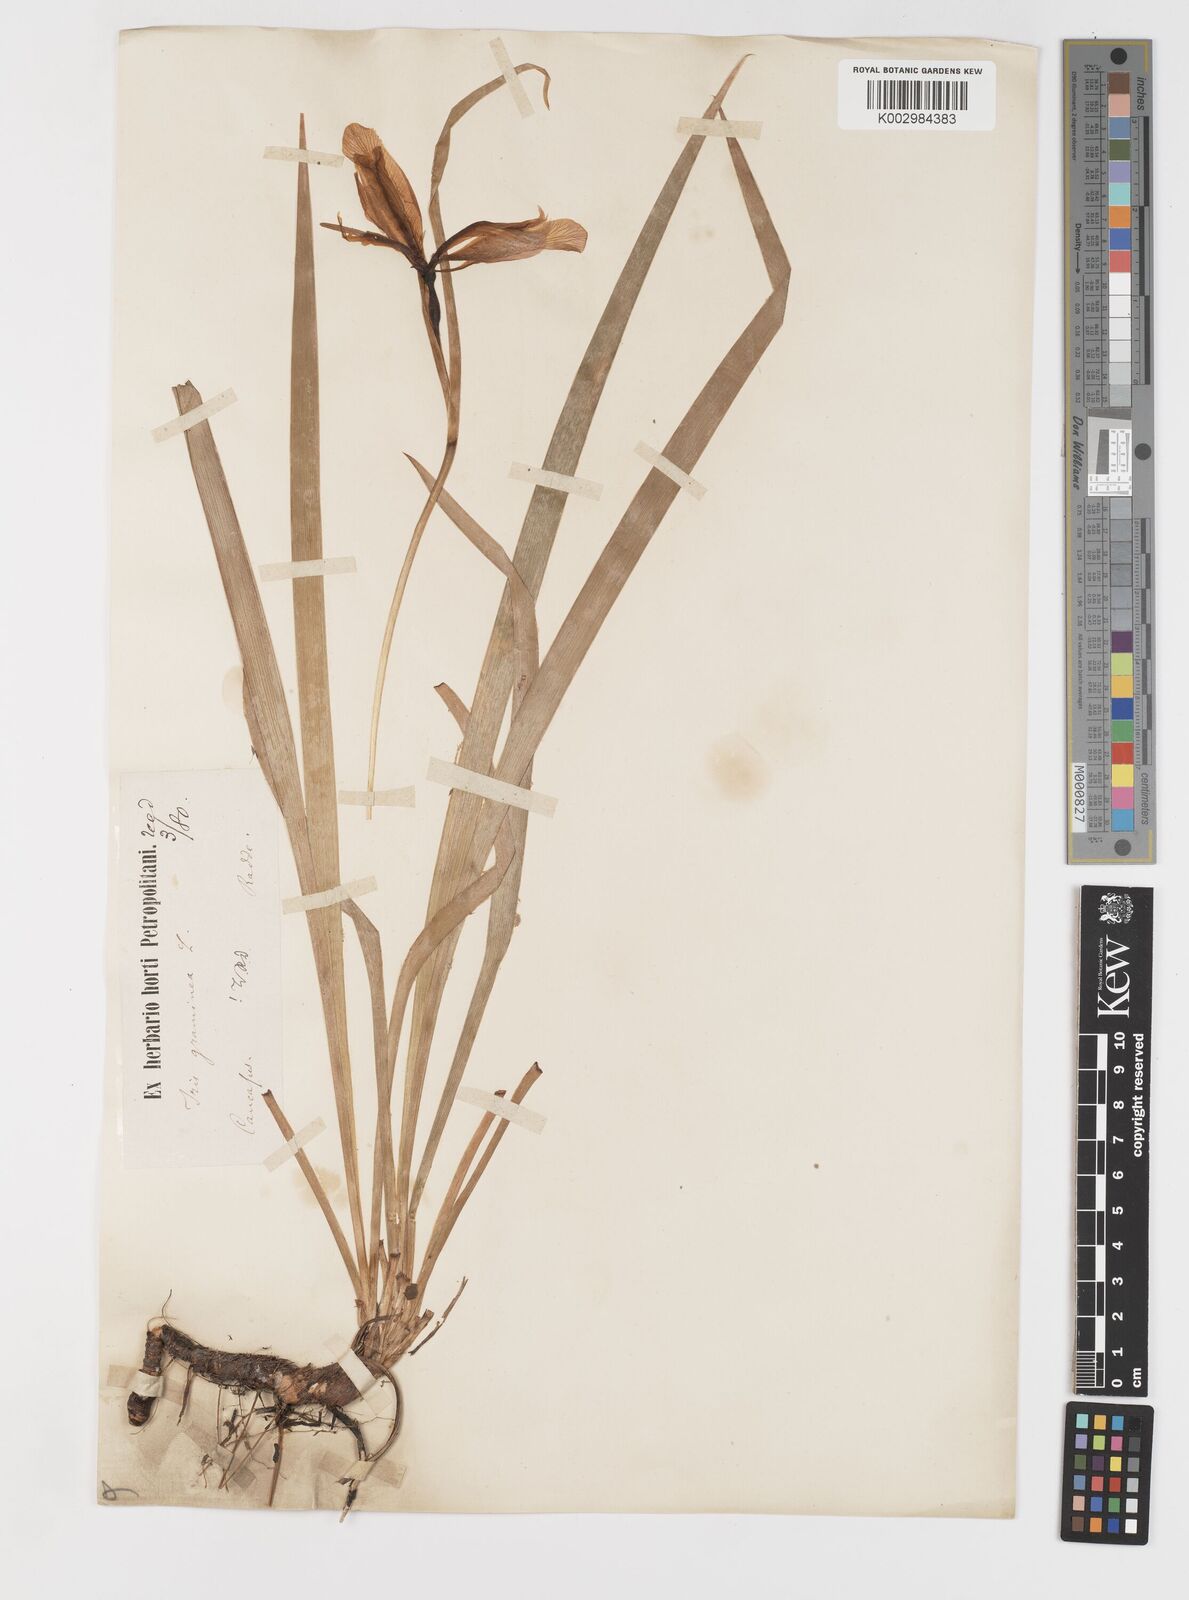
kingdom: Plantae
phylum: Tracheophyta
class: Liliopsida
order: Asparagales
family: Iridaceae
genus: Iris
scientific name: Iris graminea
